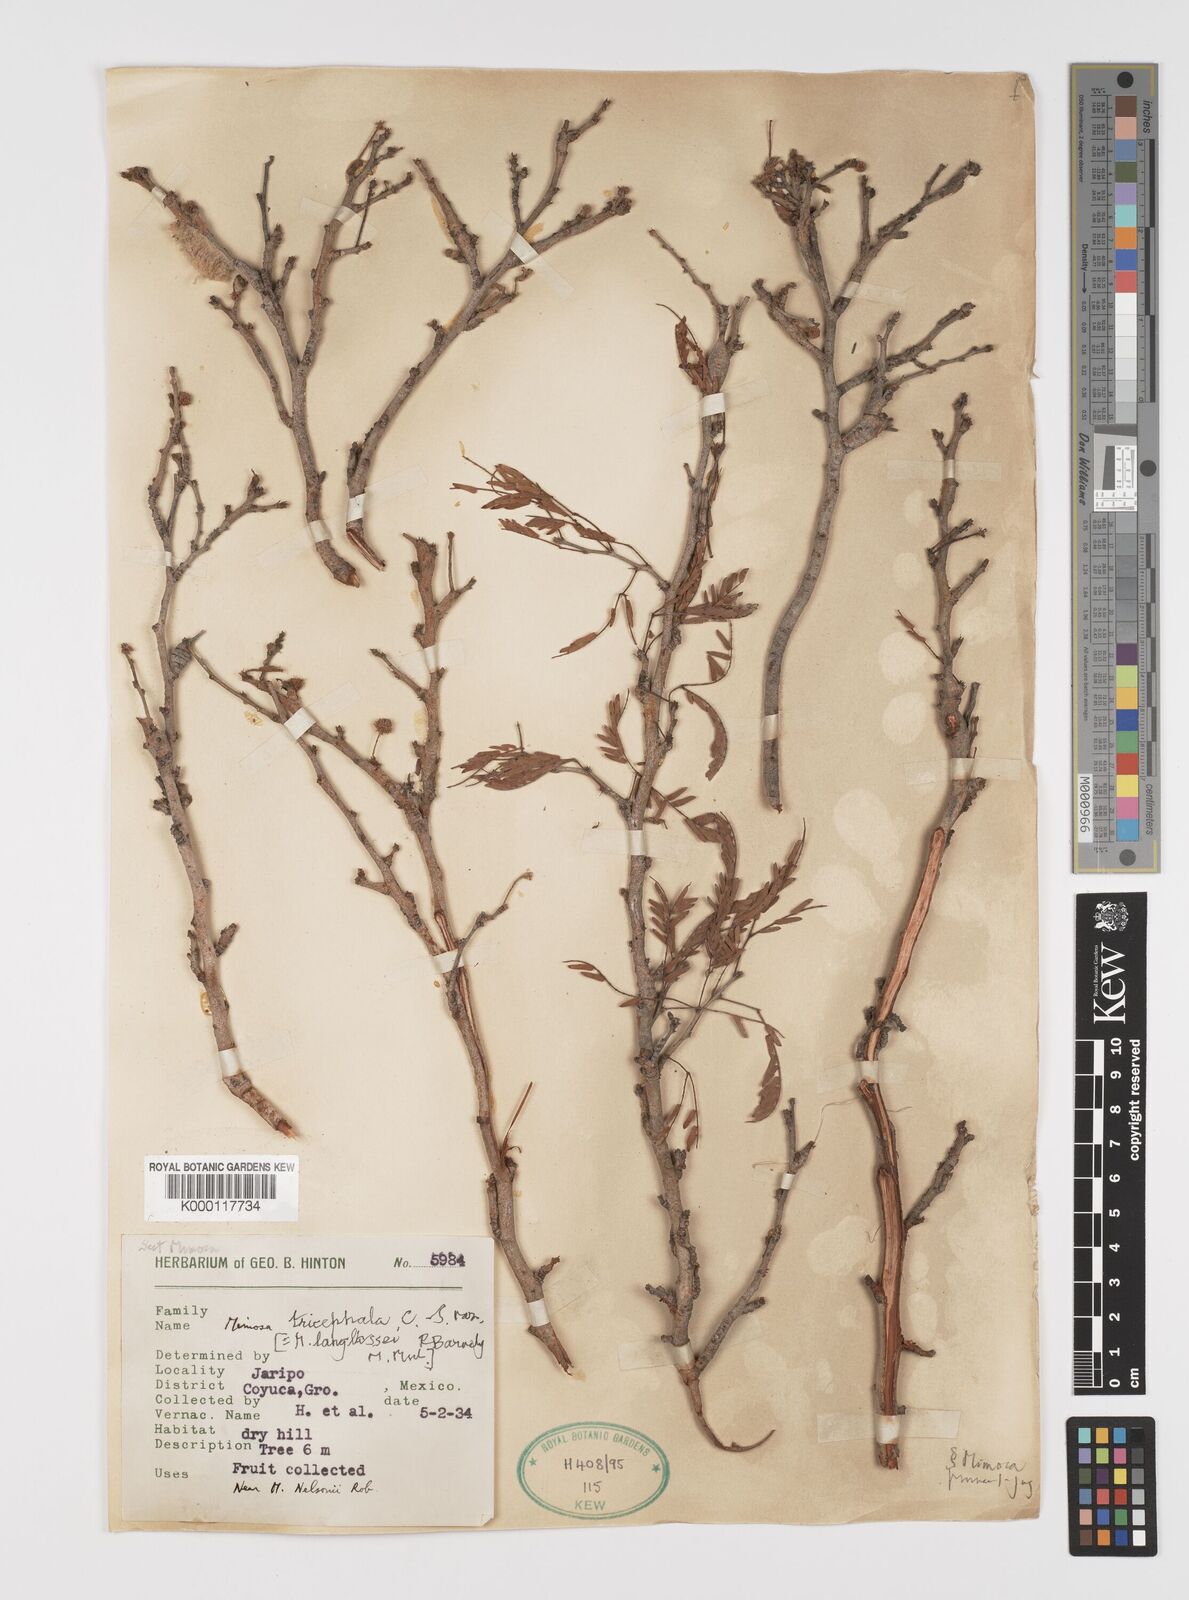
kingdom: Plantae
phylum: Tracheophyta
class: Magnoliopsida
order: Fabales
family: Fabaceae
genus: Mimosa
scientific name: Mimosa tricephala
